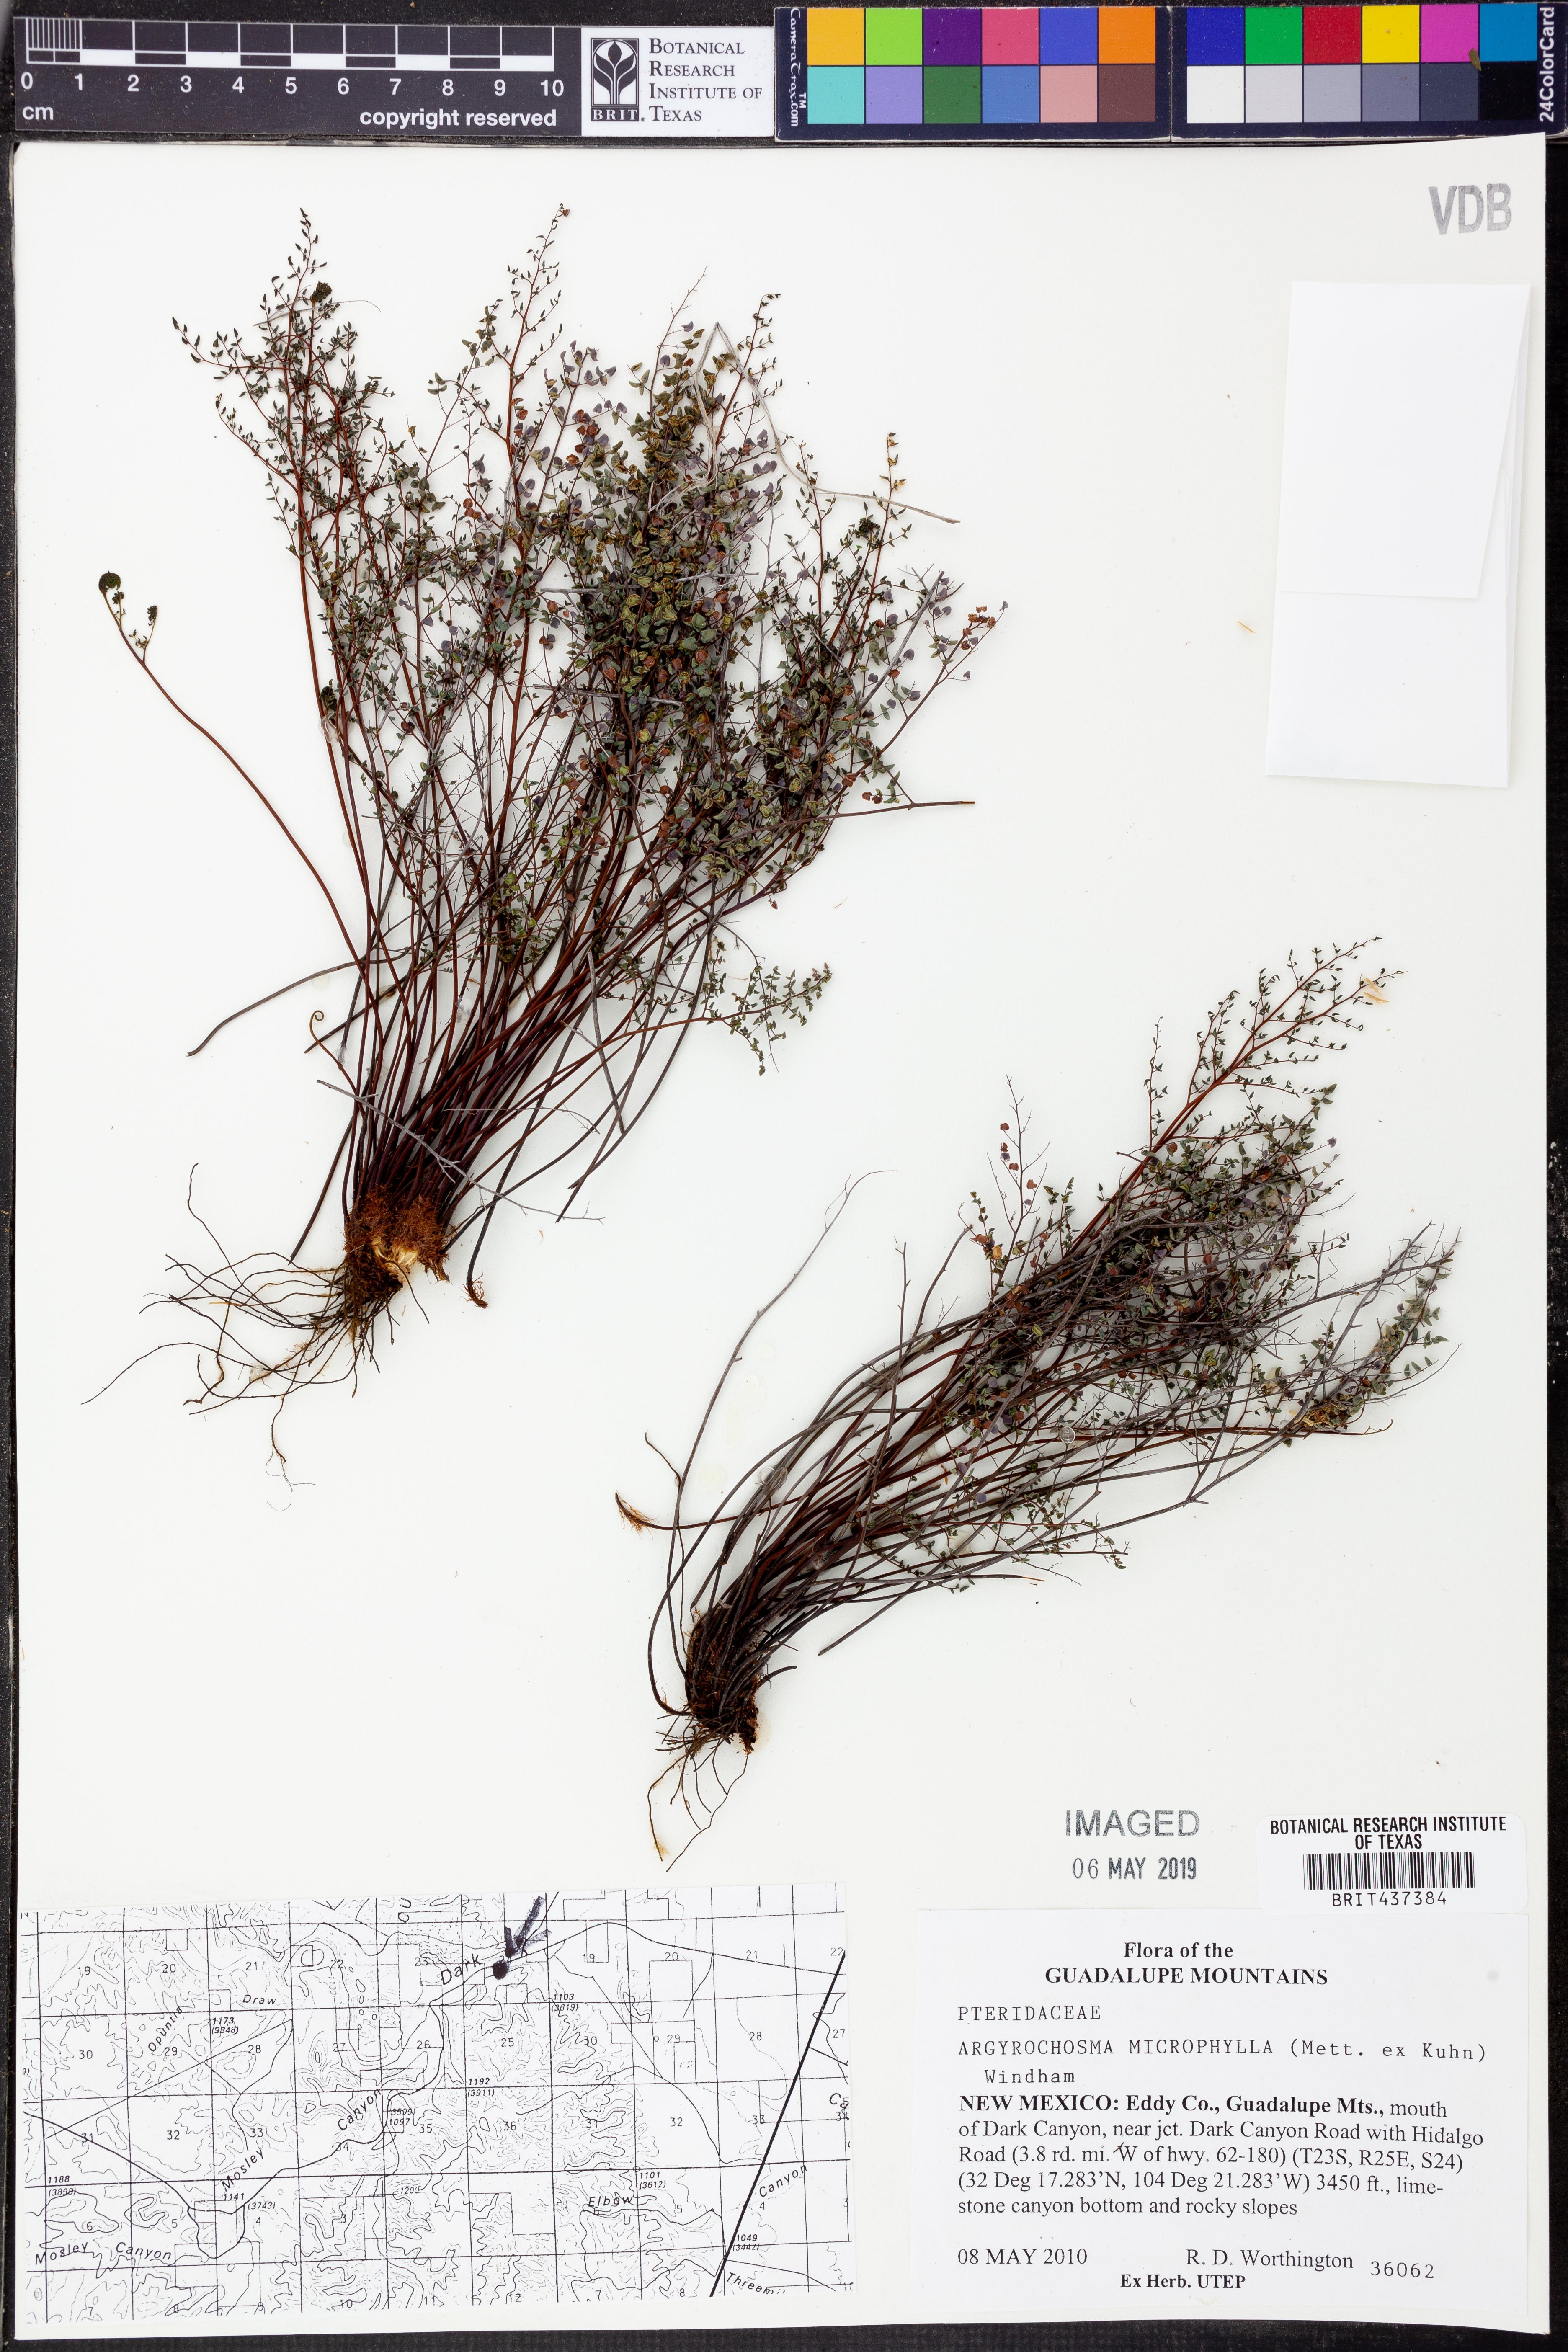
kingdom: Plantae
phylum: Tracheophyta
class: Polypodiopsida
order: Polypodiales
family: Pteridaceae
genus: Argyrochosma
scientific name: Argyrochosma microphylla
